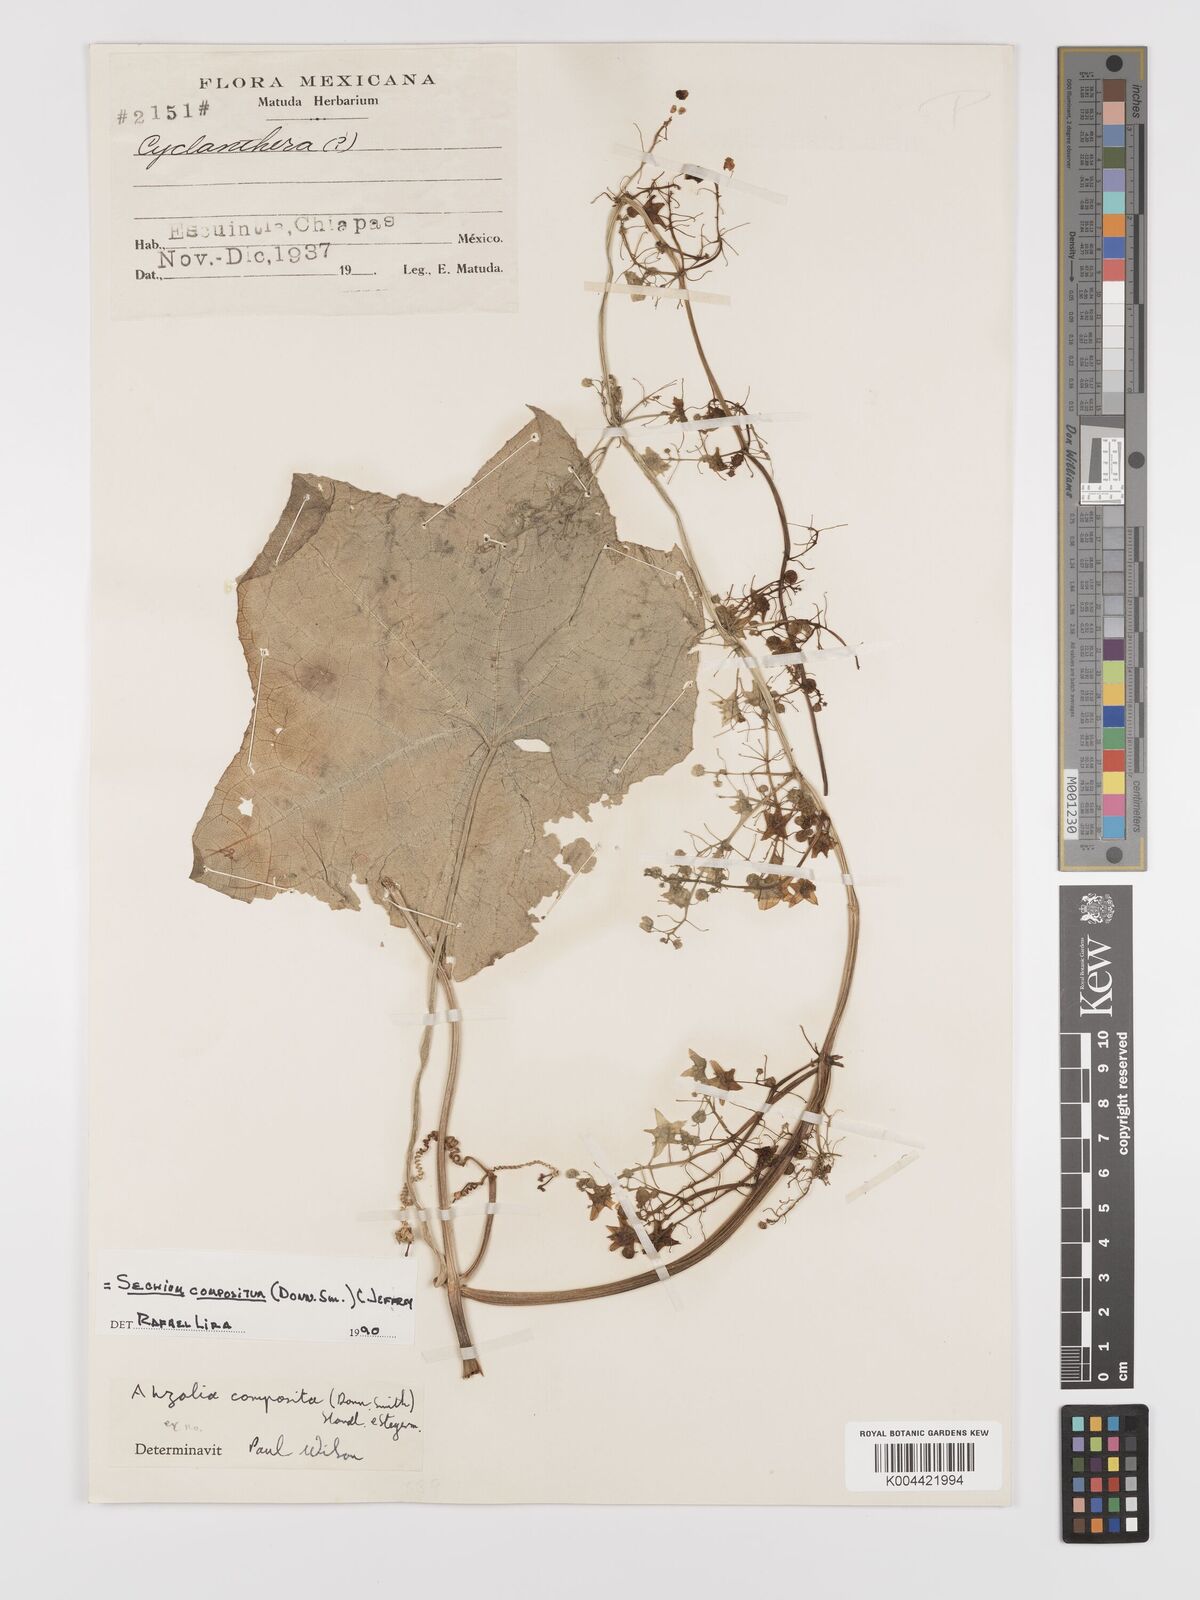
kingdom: Plantae
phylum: Tracheophyta
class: Magnoliopsida
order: Cucurbitales
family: Cucurbitaceae
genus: Sechium
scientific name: Sechium compositum
